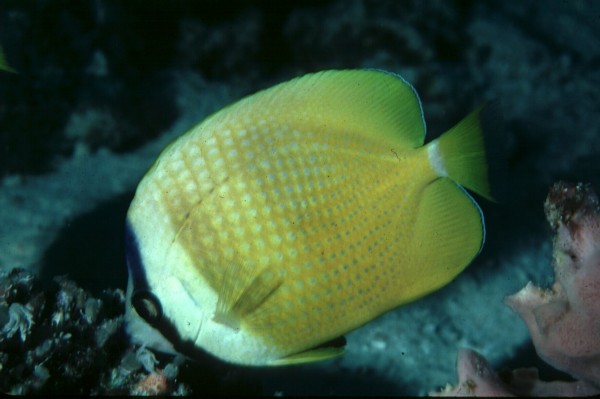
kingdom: Animalia
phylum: Chordata
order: Perciformes
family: Chaetodontidae
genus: Chaetodon
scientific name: Chaetodon kleinii
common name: Klein's butterflyfish
